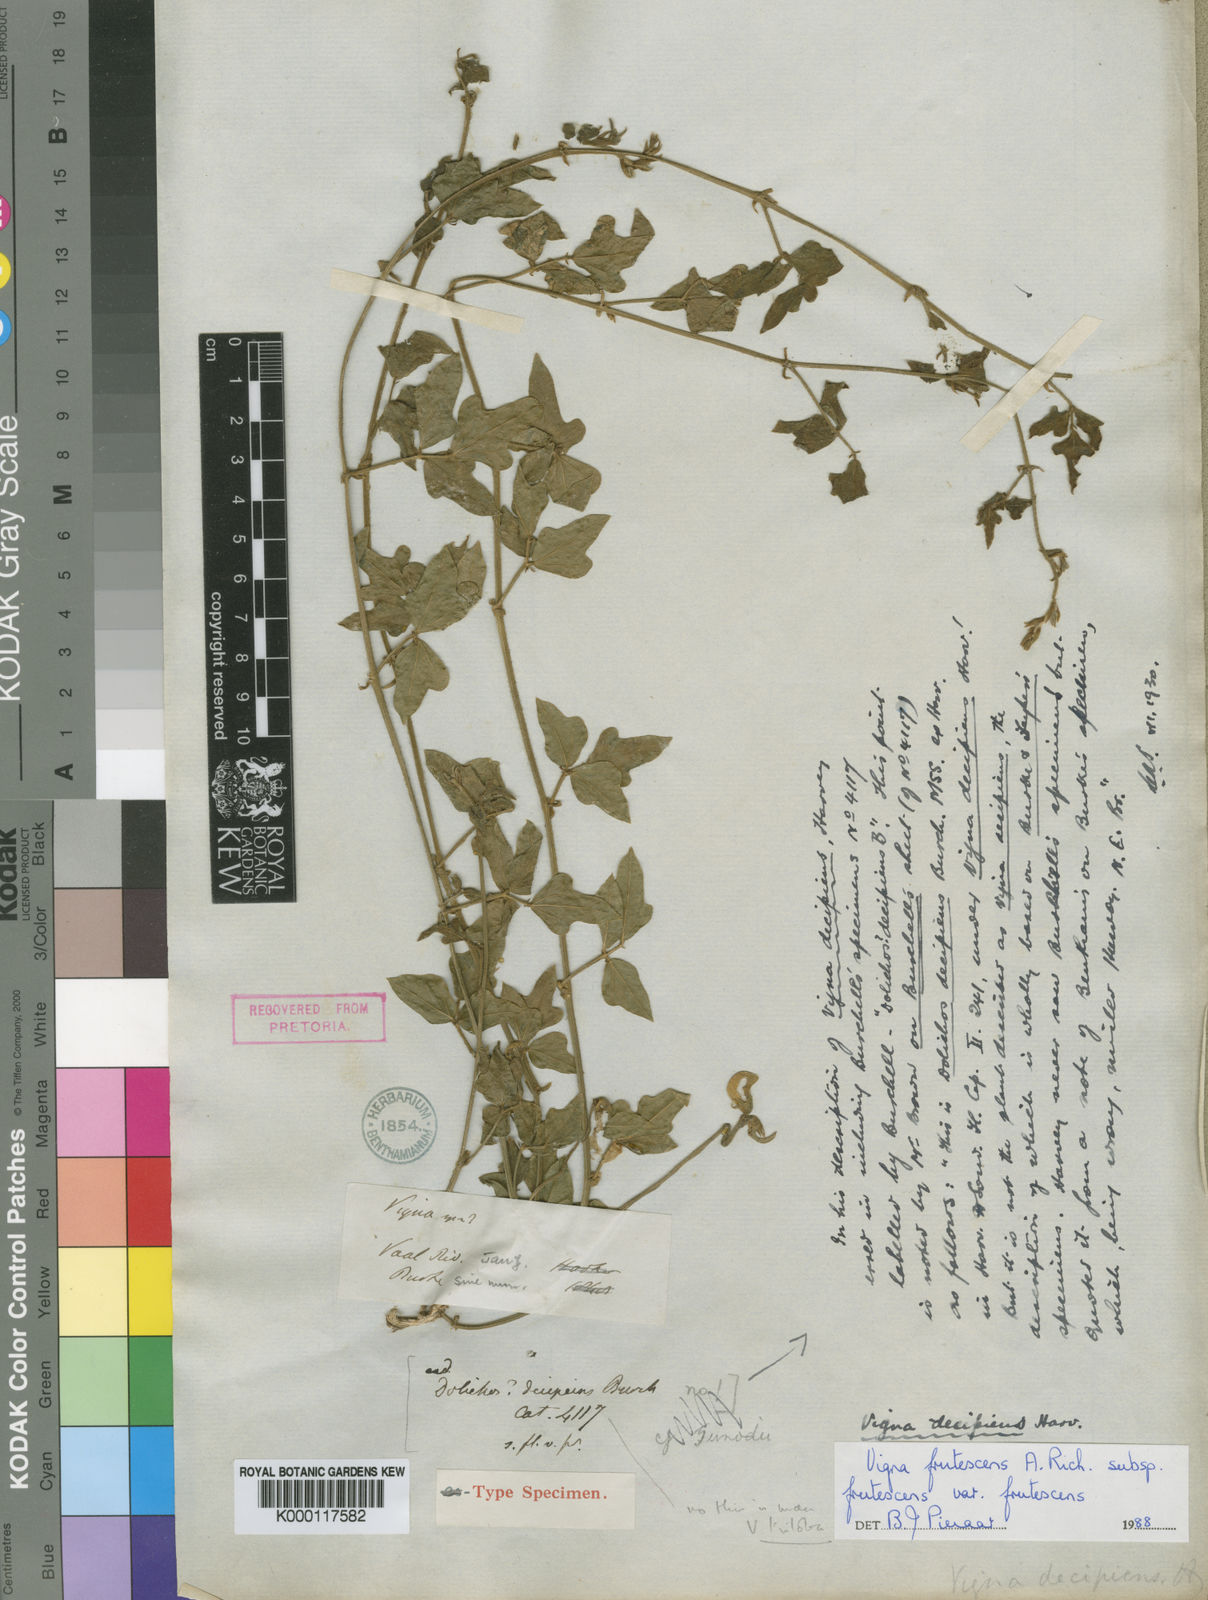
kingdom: Plantae
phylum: Tracheophyta
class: Magnoliopsida
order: Fabales
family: Fabaceae
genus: Vigna
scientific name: Vigna frutescens
